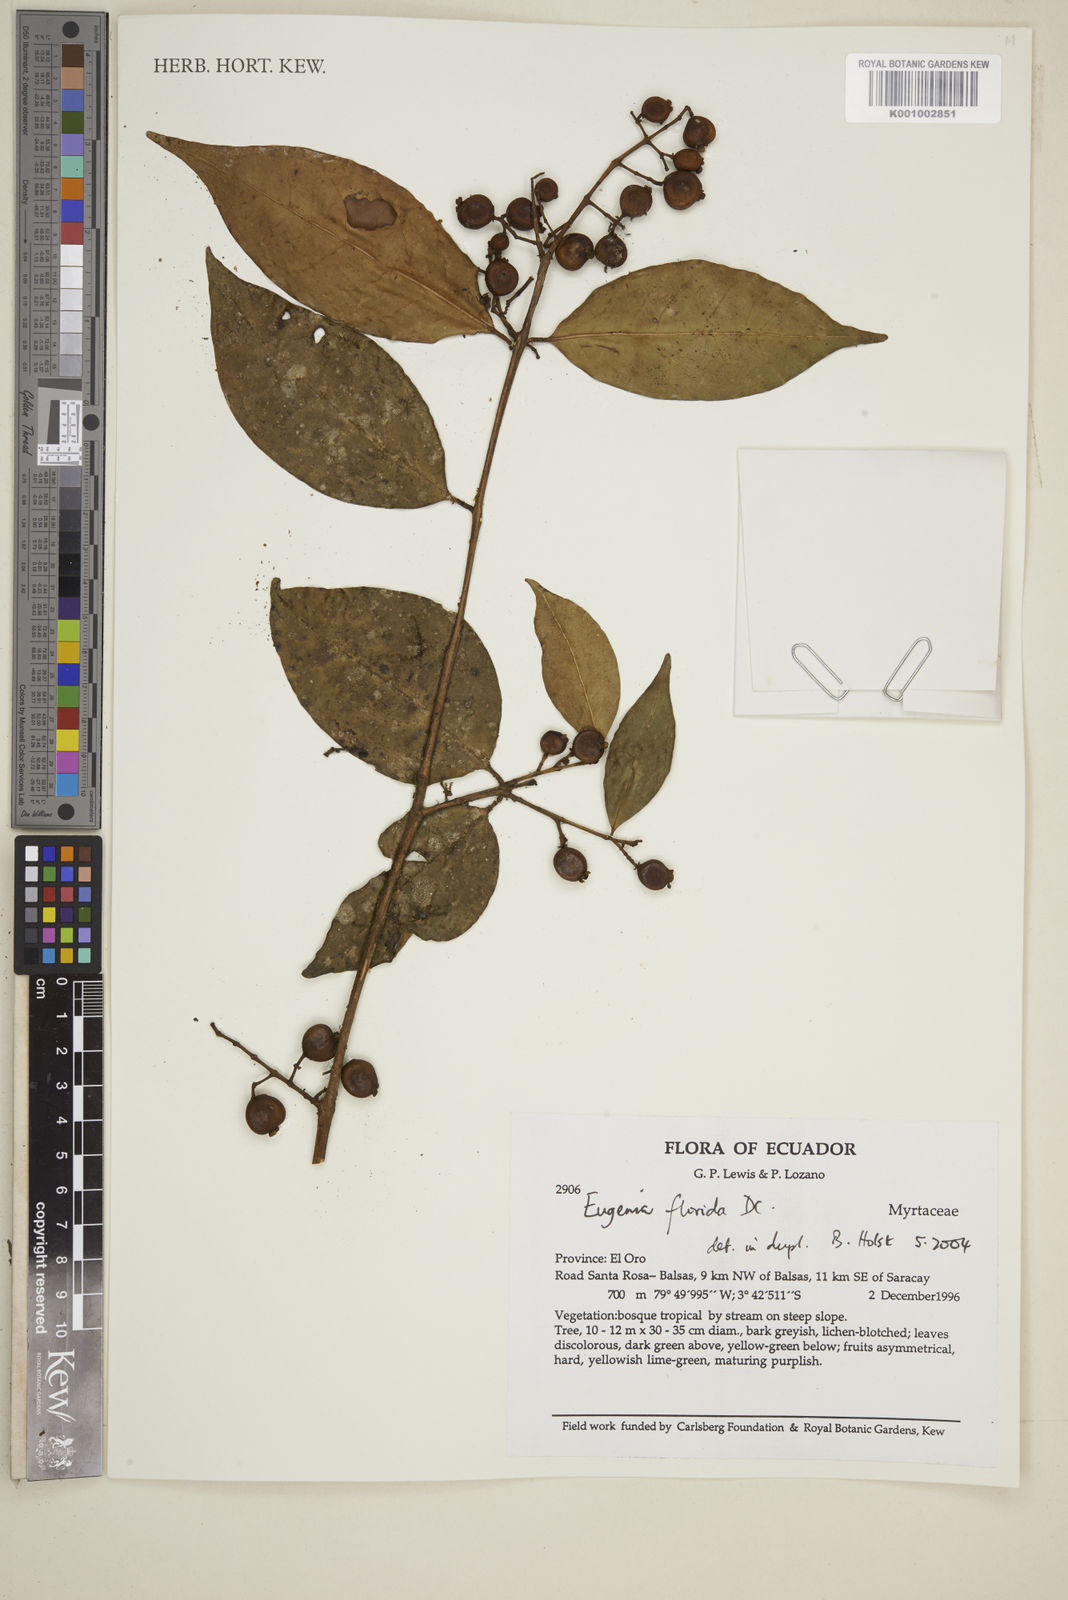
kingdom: Plantae
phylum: Tracheophyta
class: Magnoliopsida
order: Myrtales
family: Myrtaceae
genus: Eugenia
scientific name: Eugenia florida
